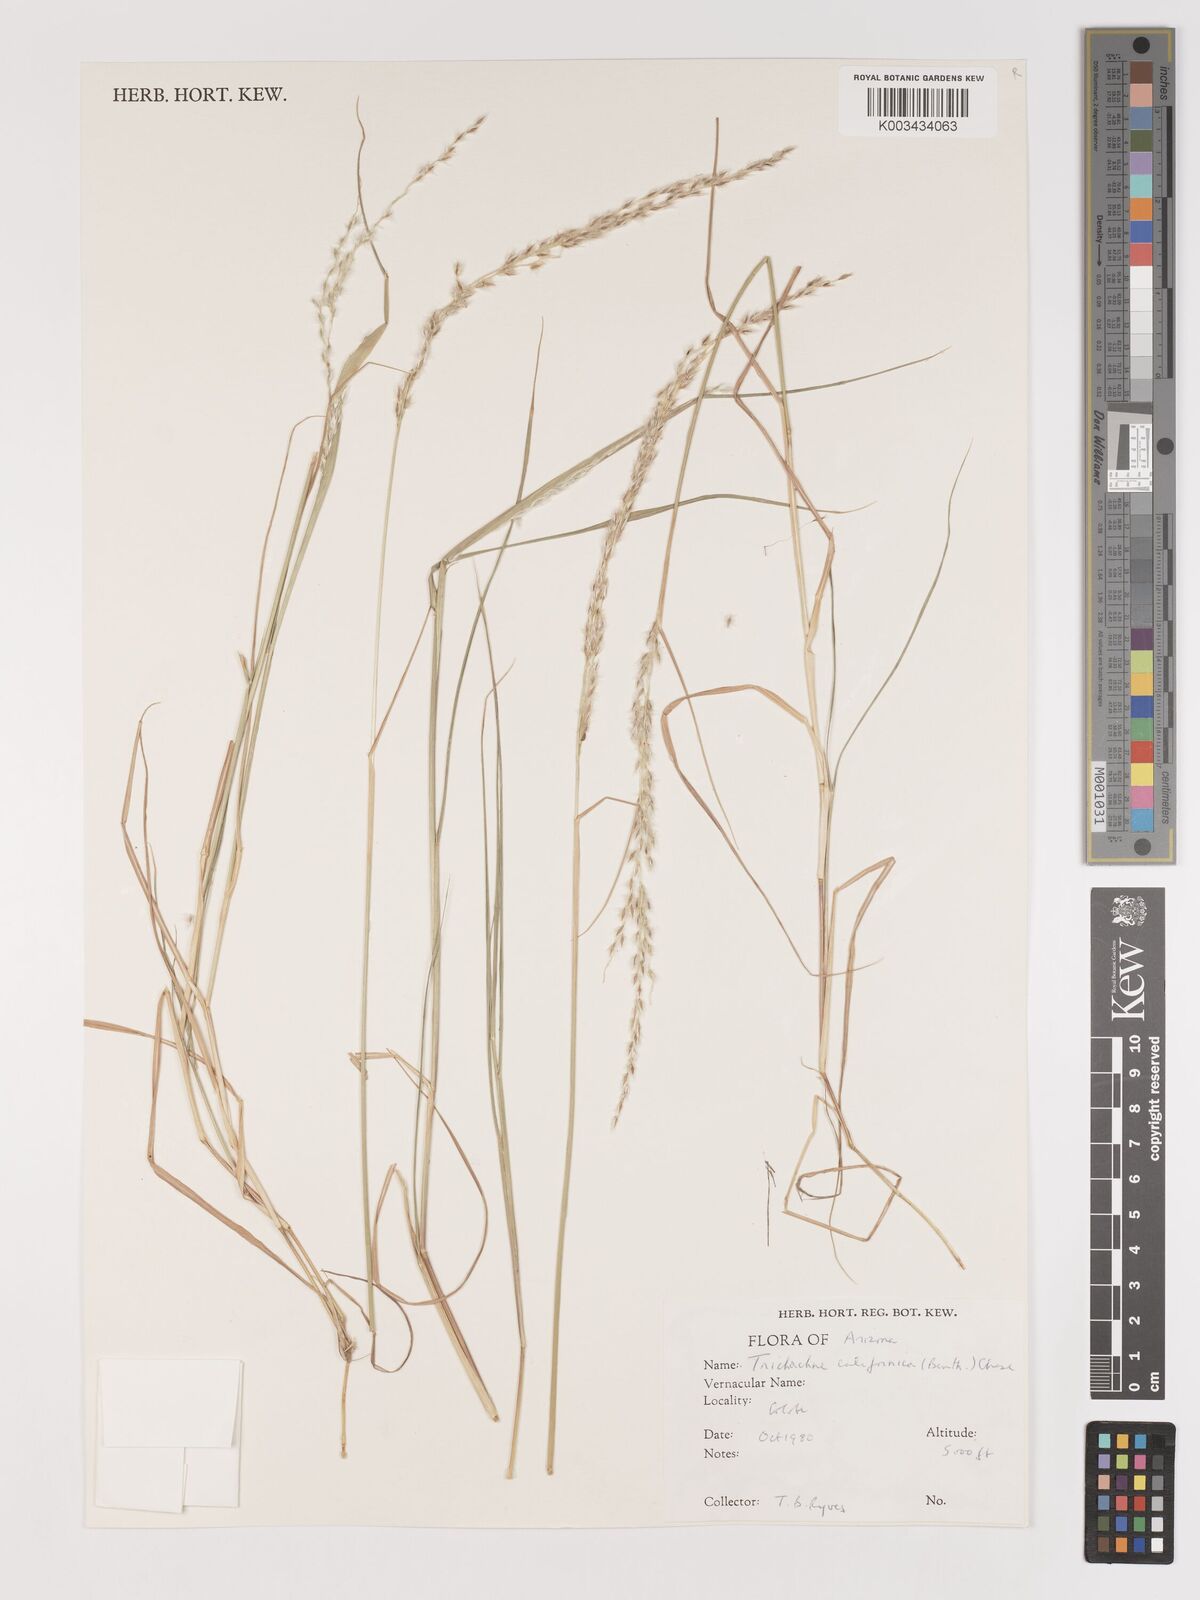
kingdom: Plantae
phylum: Tracheophyta
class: Liliopsida
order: Poales
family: Poaceae
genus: Digitaria
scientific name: Digitaria californica
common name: Arizona cottontop
